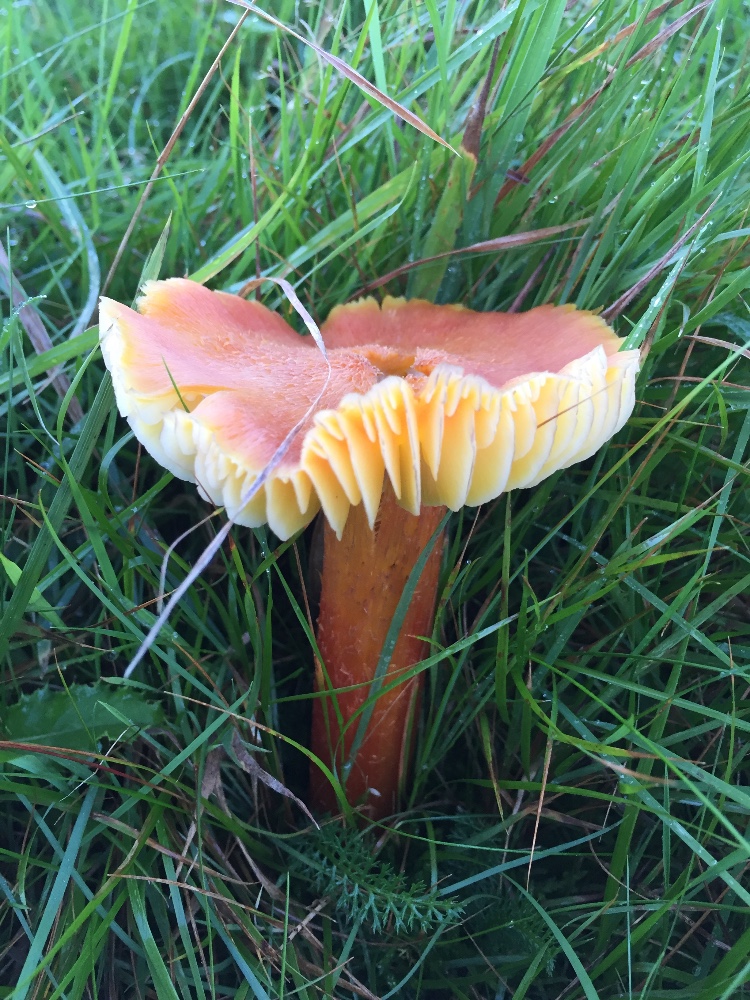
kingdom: Fungi
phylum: Basidiomycota
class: Agaricomycetes
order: Agaricales
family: Hygrophoraceae
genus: Hygrocybe
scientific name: Hygrocybe intermedia
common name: trævlet vokshat
